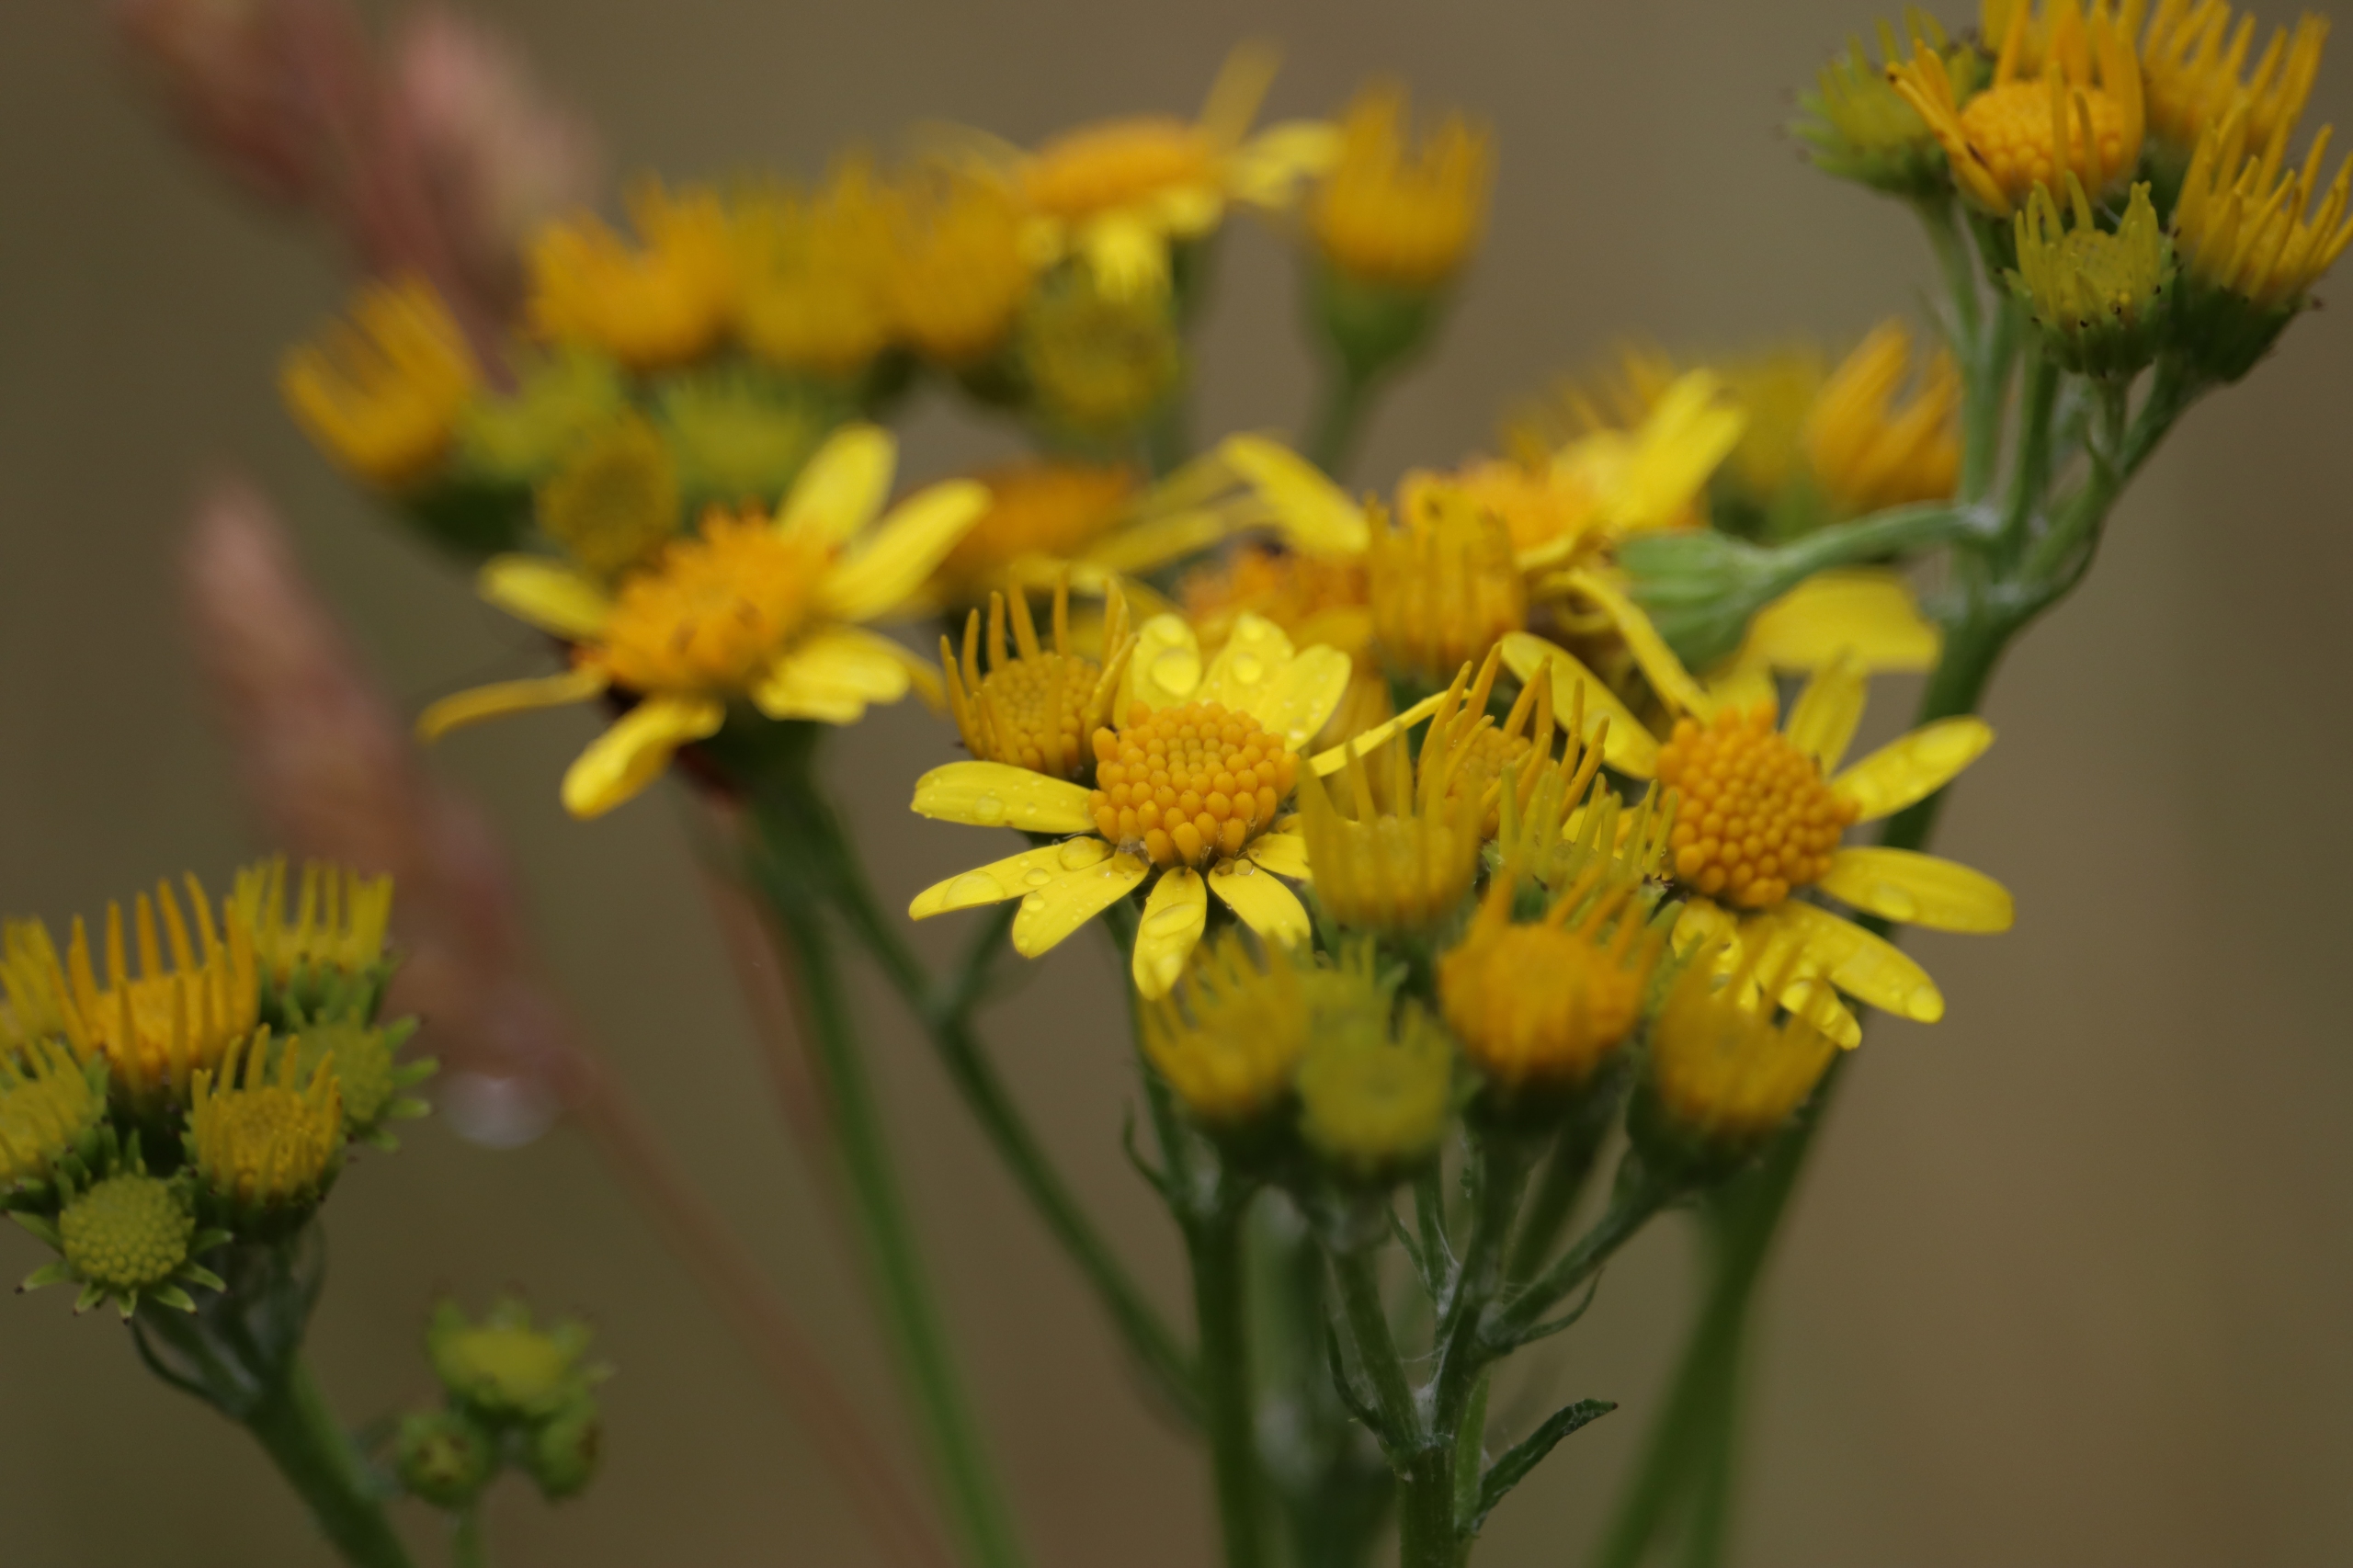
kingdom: Plantae
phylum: Tracheophyta
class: Magnoliopsida
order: Asterales
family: Asteraceae
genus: Jacobaea
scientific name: Jacobaea vulgaris
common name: Eng-brandbæger
